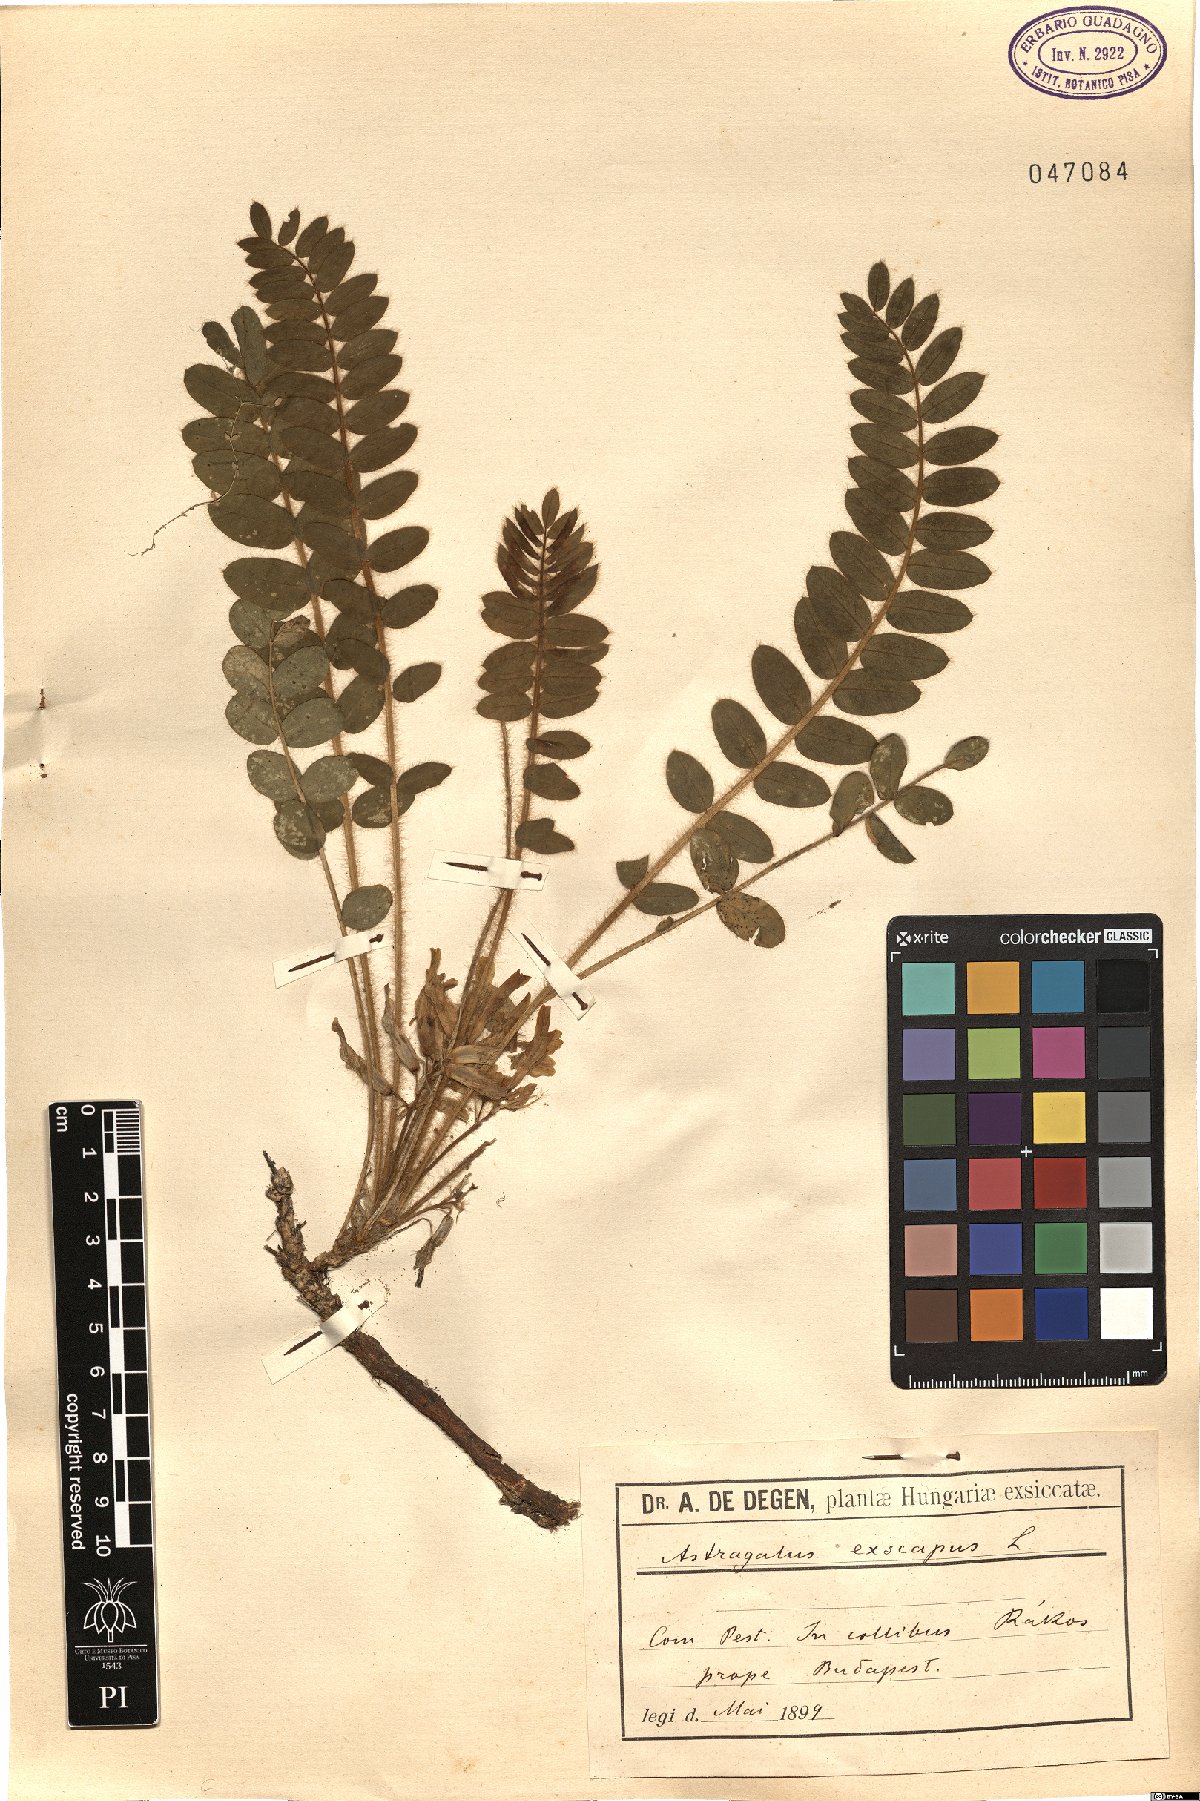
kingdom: Plantae
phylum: Tracheophyta
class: Magnoliopsida
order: Fabales
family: Fabaceae
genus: Astragalus
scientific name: Astragalus exscapus
